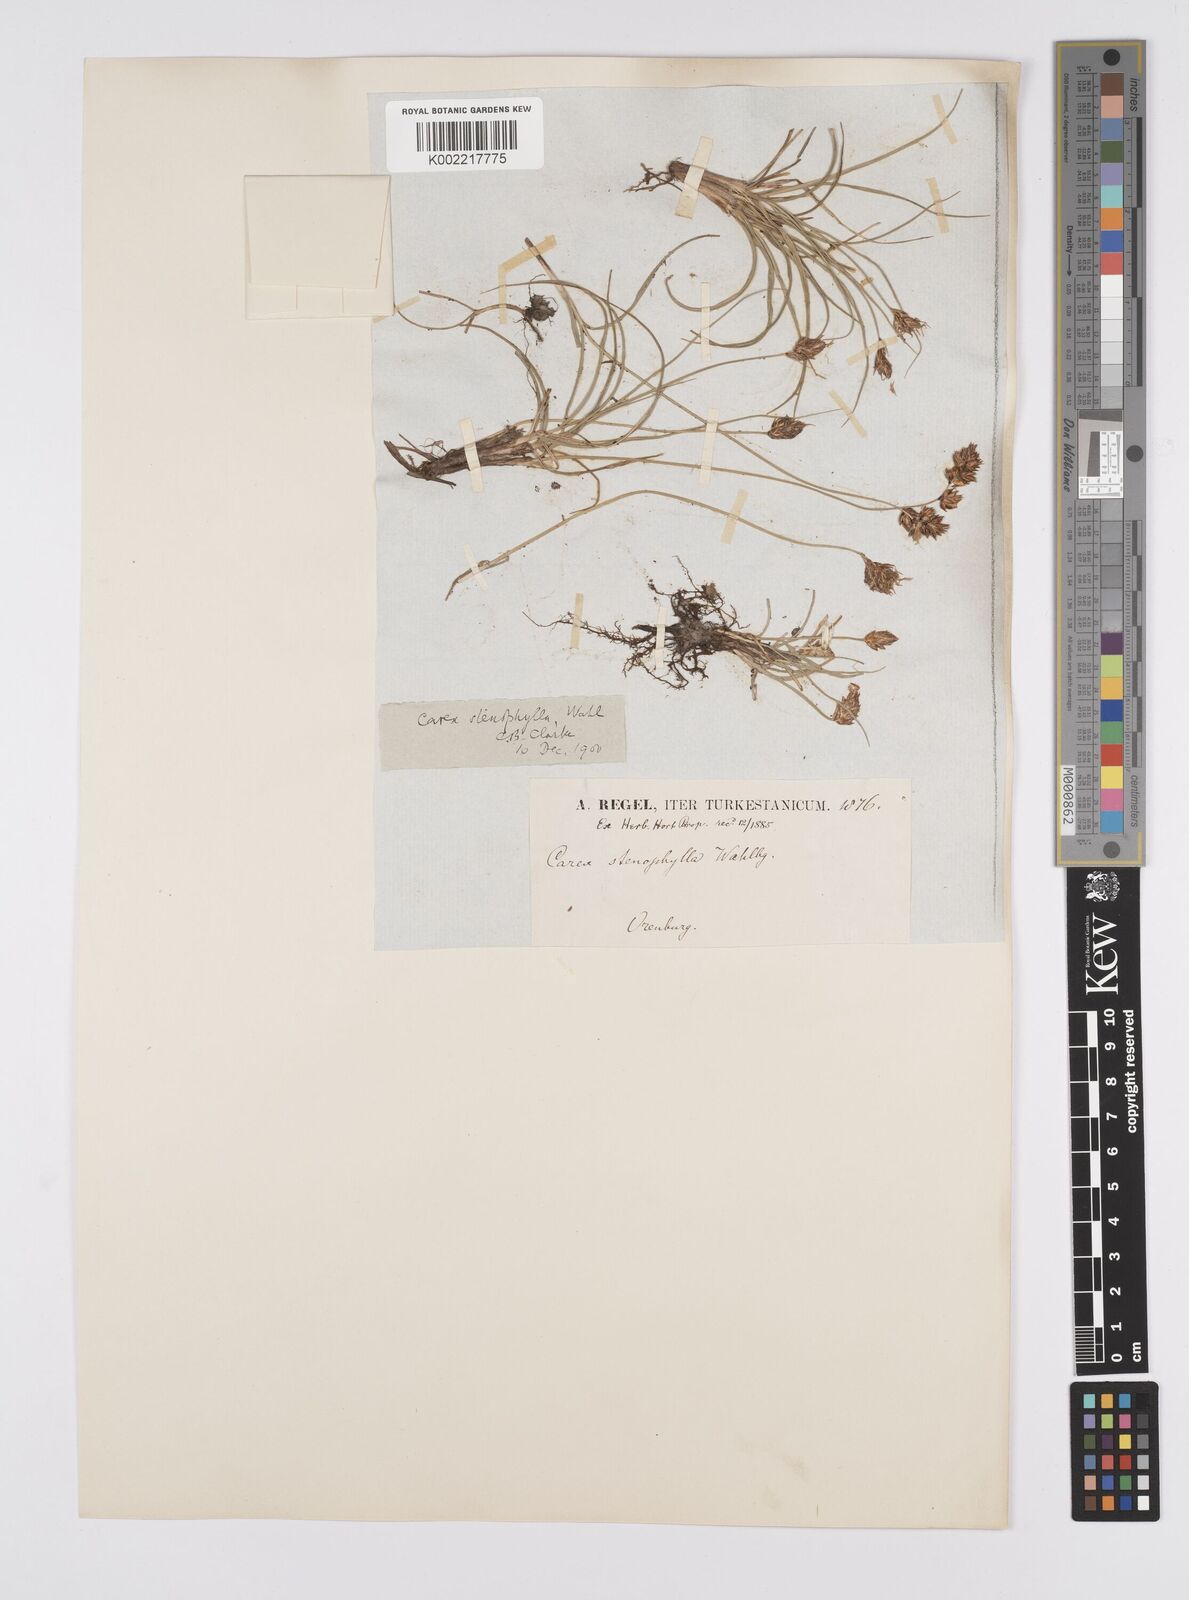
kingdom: Plantae
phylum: Tracheophyta
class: Liliopsida
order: Poales
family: Cyperaceae
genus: Carex
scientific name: Carex stenophylla
